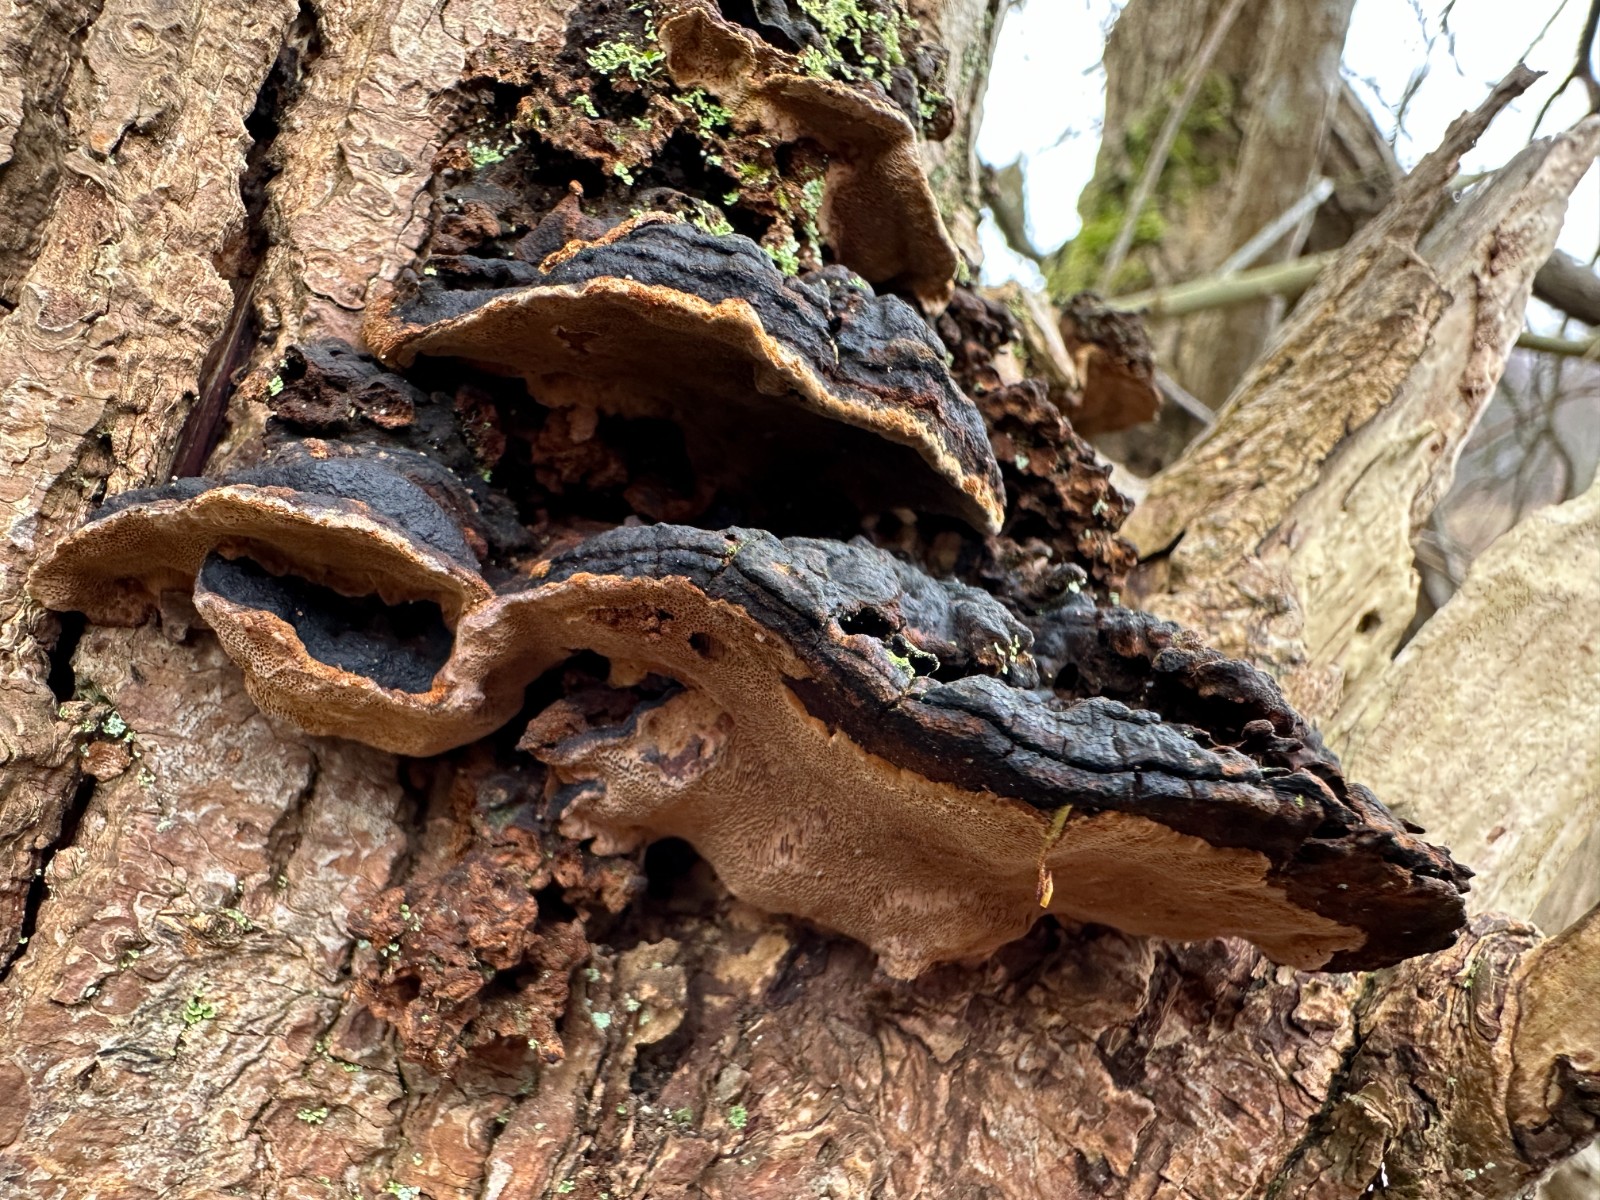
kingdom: Fungi
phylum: Basidiomycota
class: Agaricomycetes
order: Hymenochaetales
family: Hymenochaetaceae
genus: Phellinopsis
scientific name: Phellinopsis conchata
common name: pile-ildporesvamp
